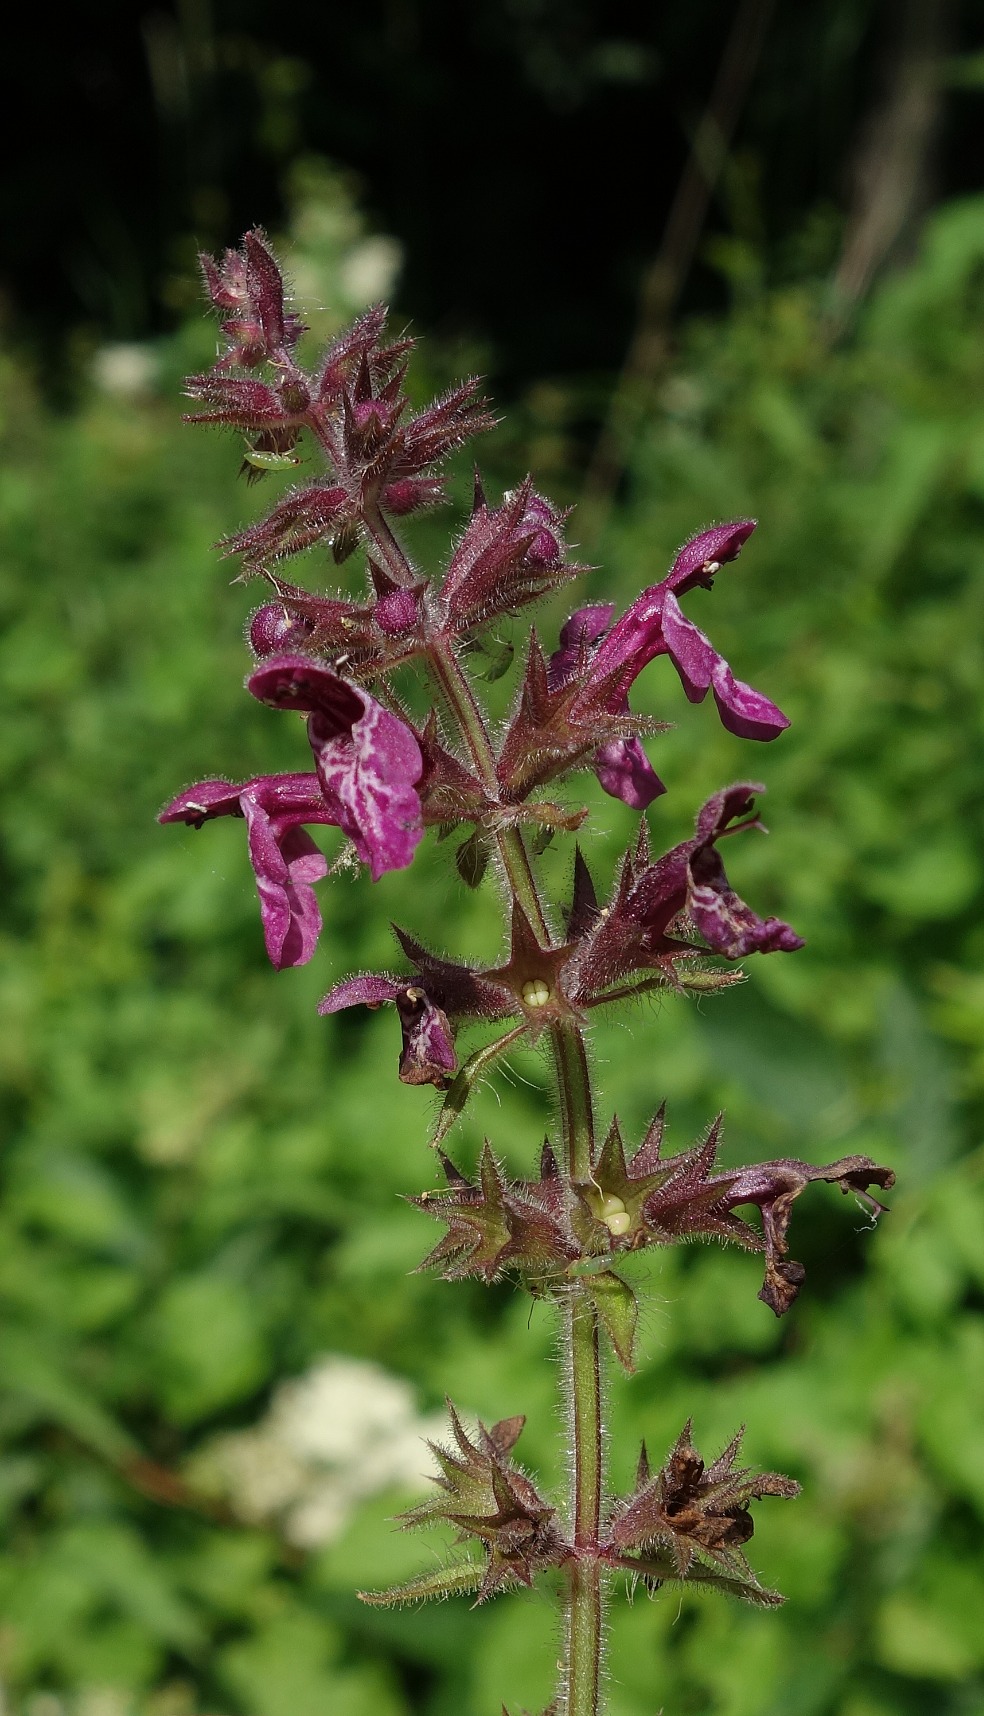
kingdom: Plantae
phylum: Tracheophyta
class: Magnoliopsida
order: Lamiales
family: Lamiaceae
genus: Stachys
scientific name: Stachys sylvatica
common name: Skov-galtetand
